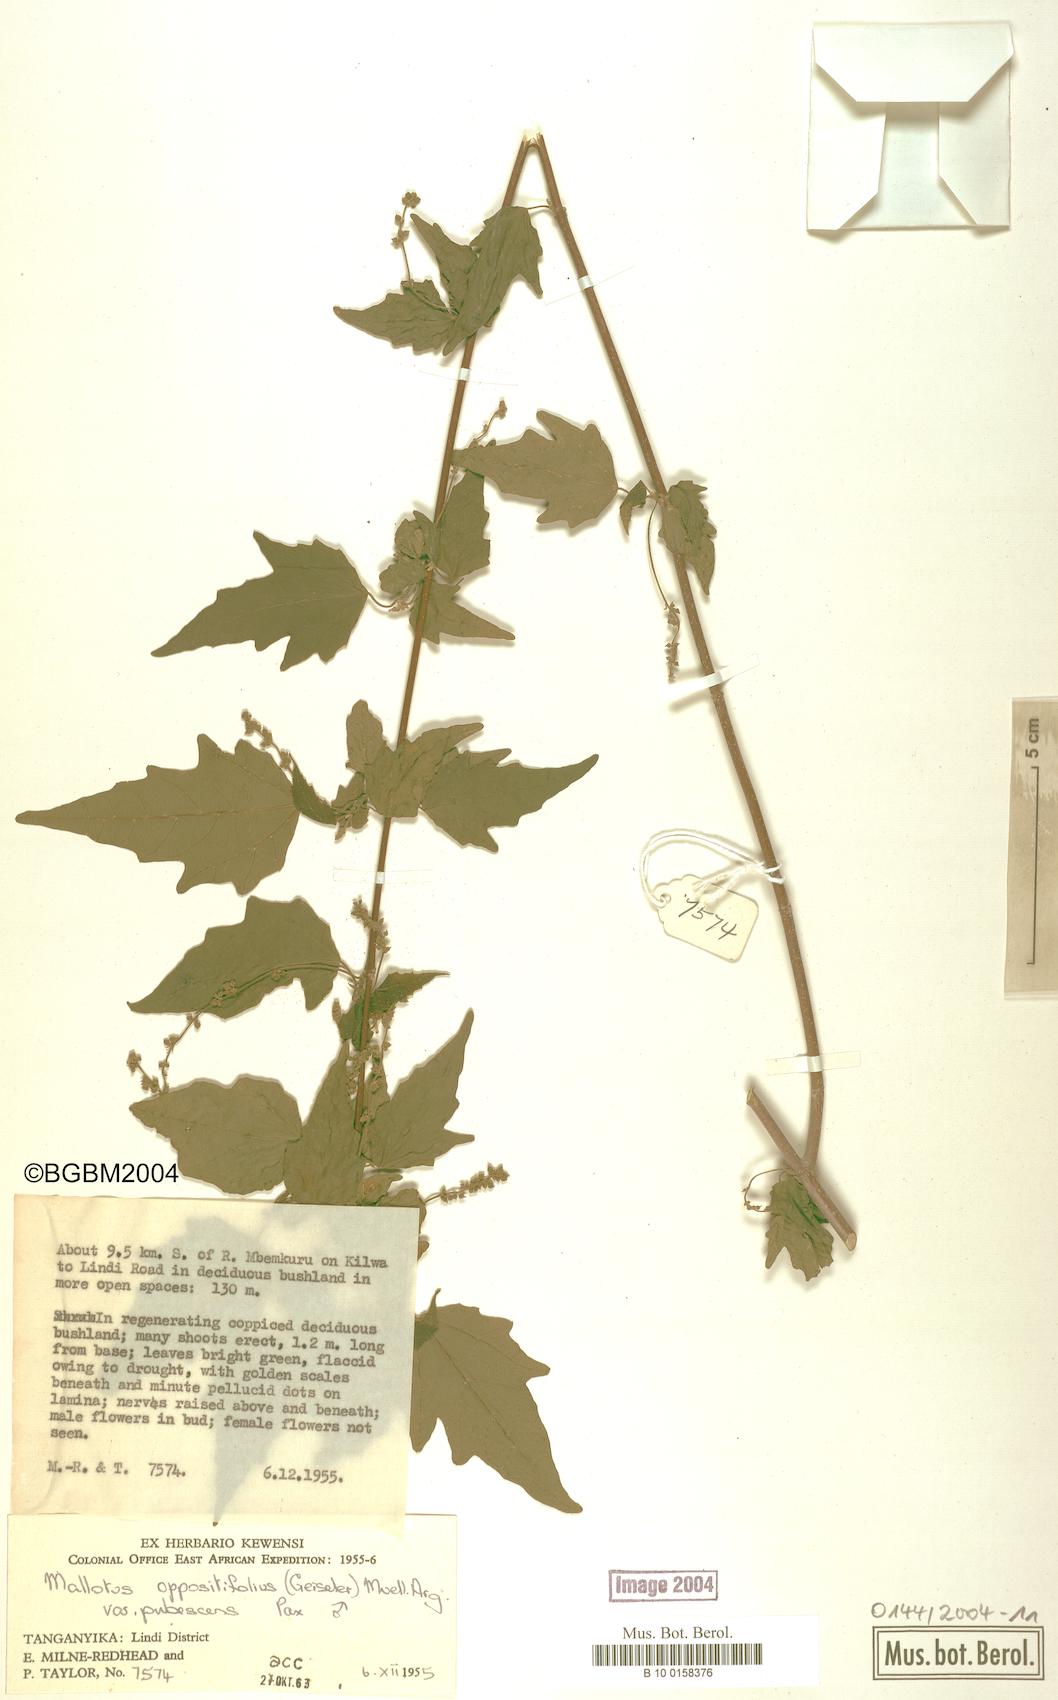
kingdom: Plantae
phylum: Tracheophyta
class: Magnoliopsida
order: Malpighiales
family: Euphorbiaceae
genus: Mallotus
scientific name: Mallotus oppositifolius
